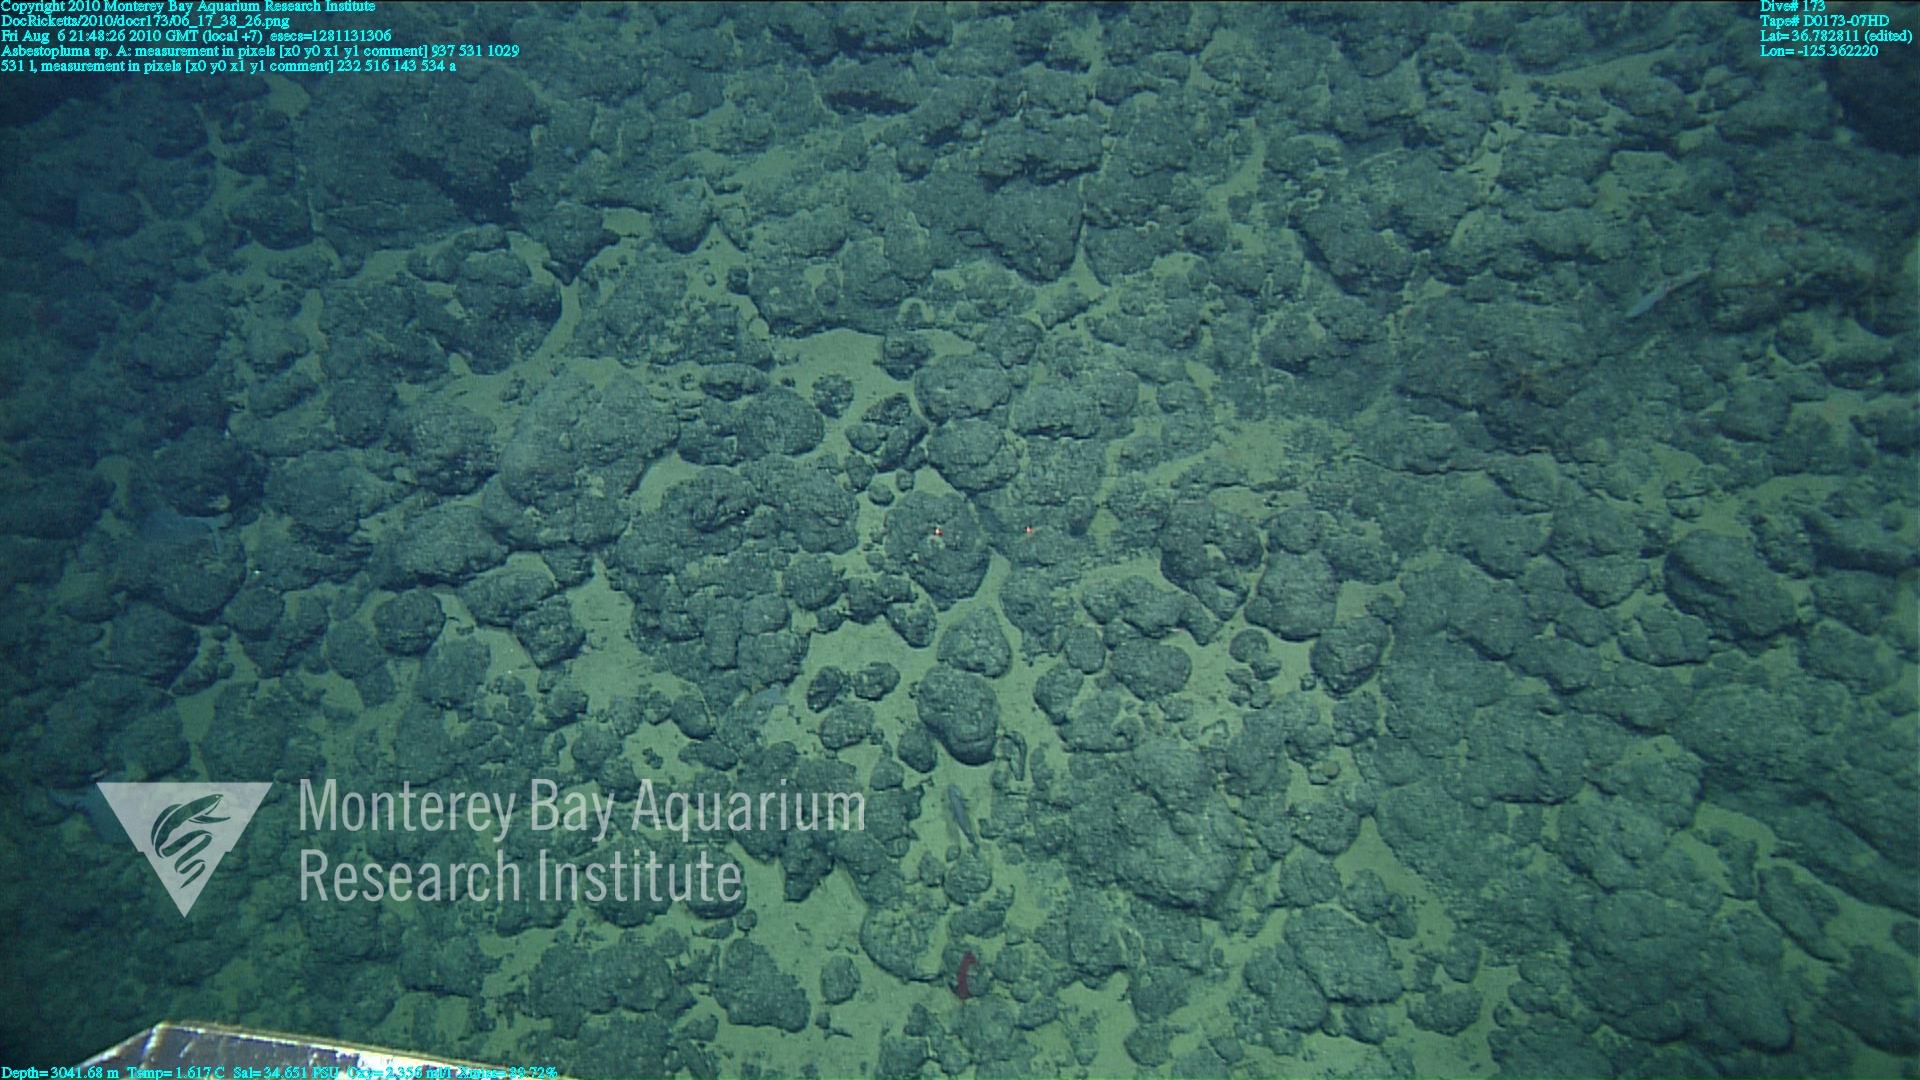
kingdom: Animalia
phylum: Porifera
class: Demospongiae
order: Poecilosclerida
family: Cladorhizidae
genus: Asbestopluma
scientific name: Asbestopluma
